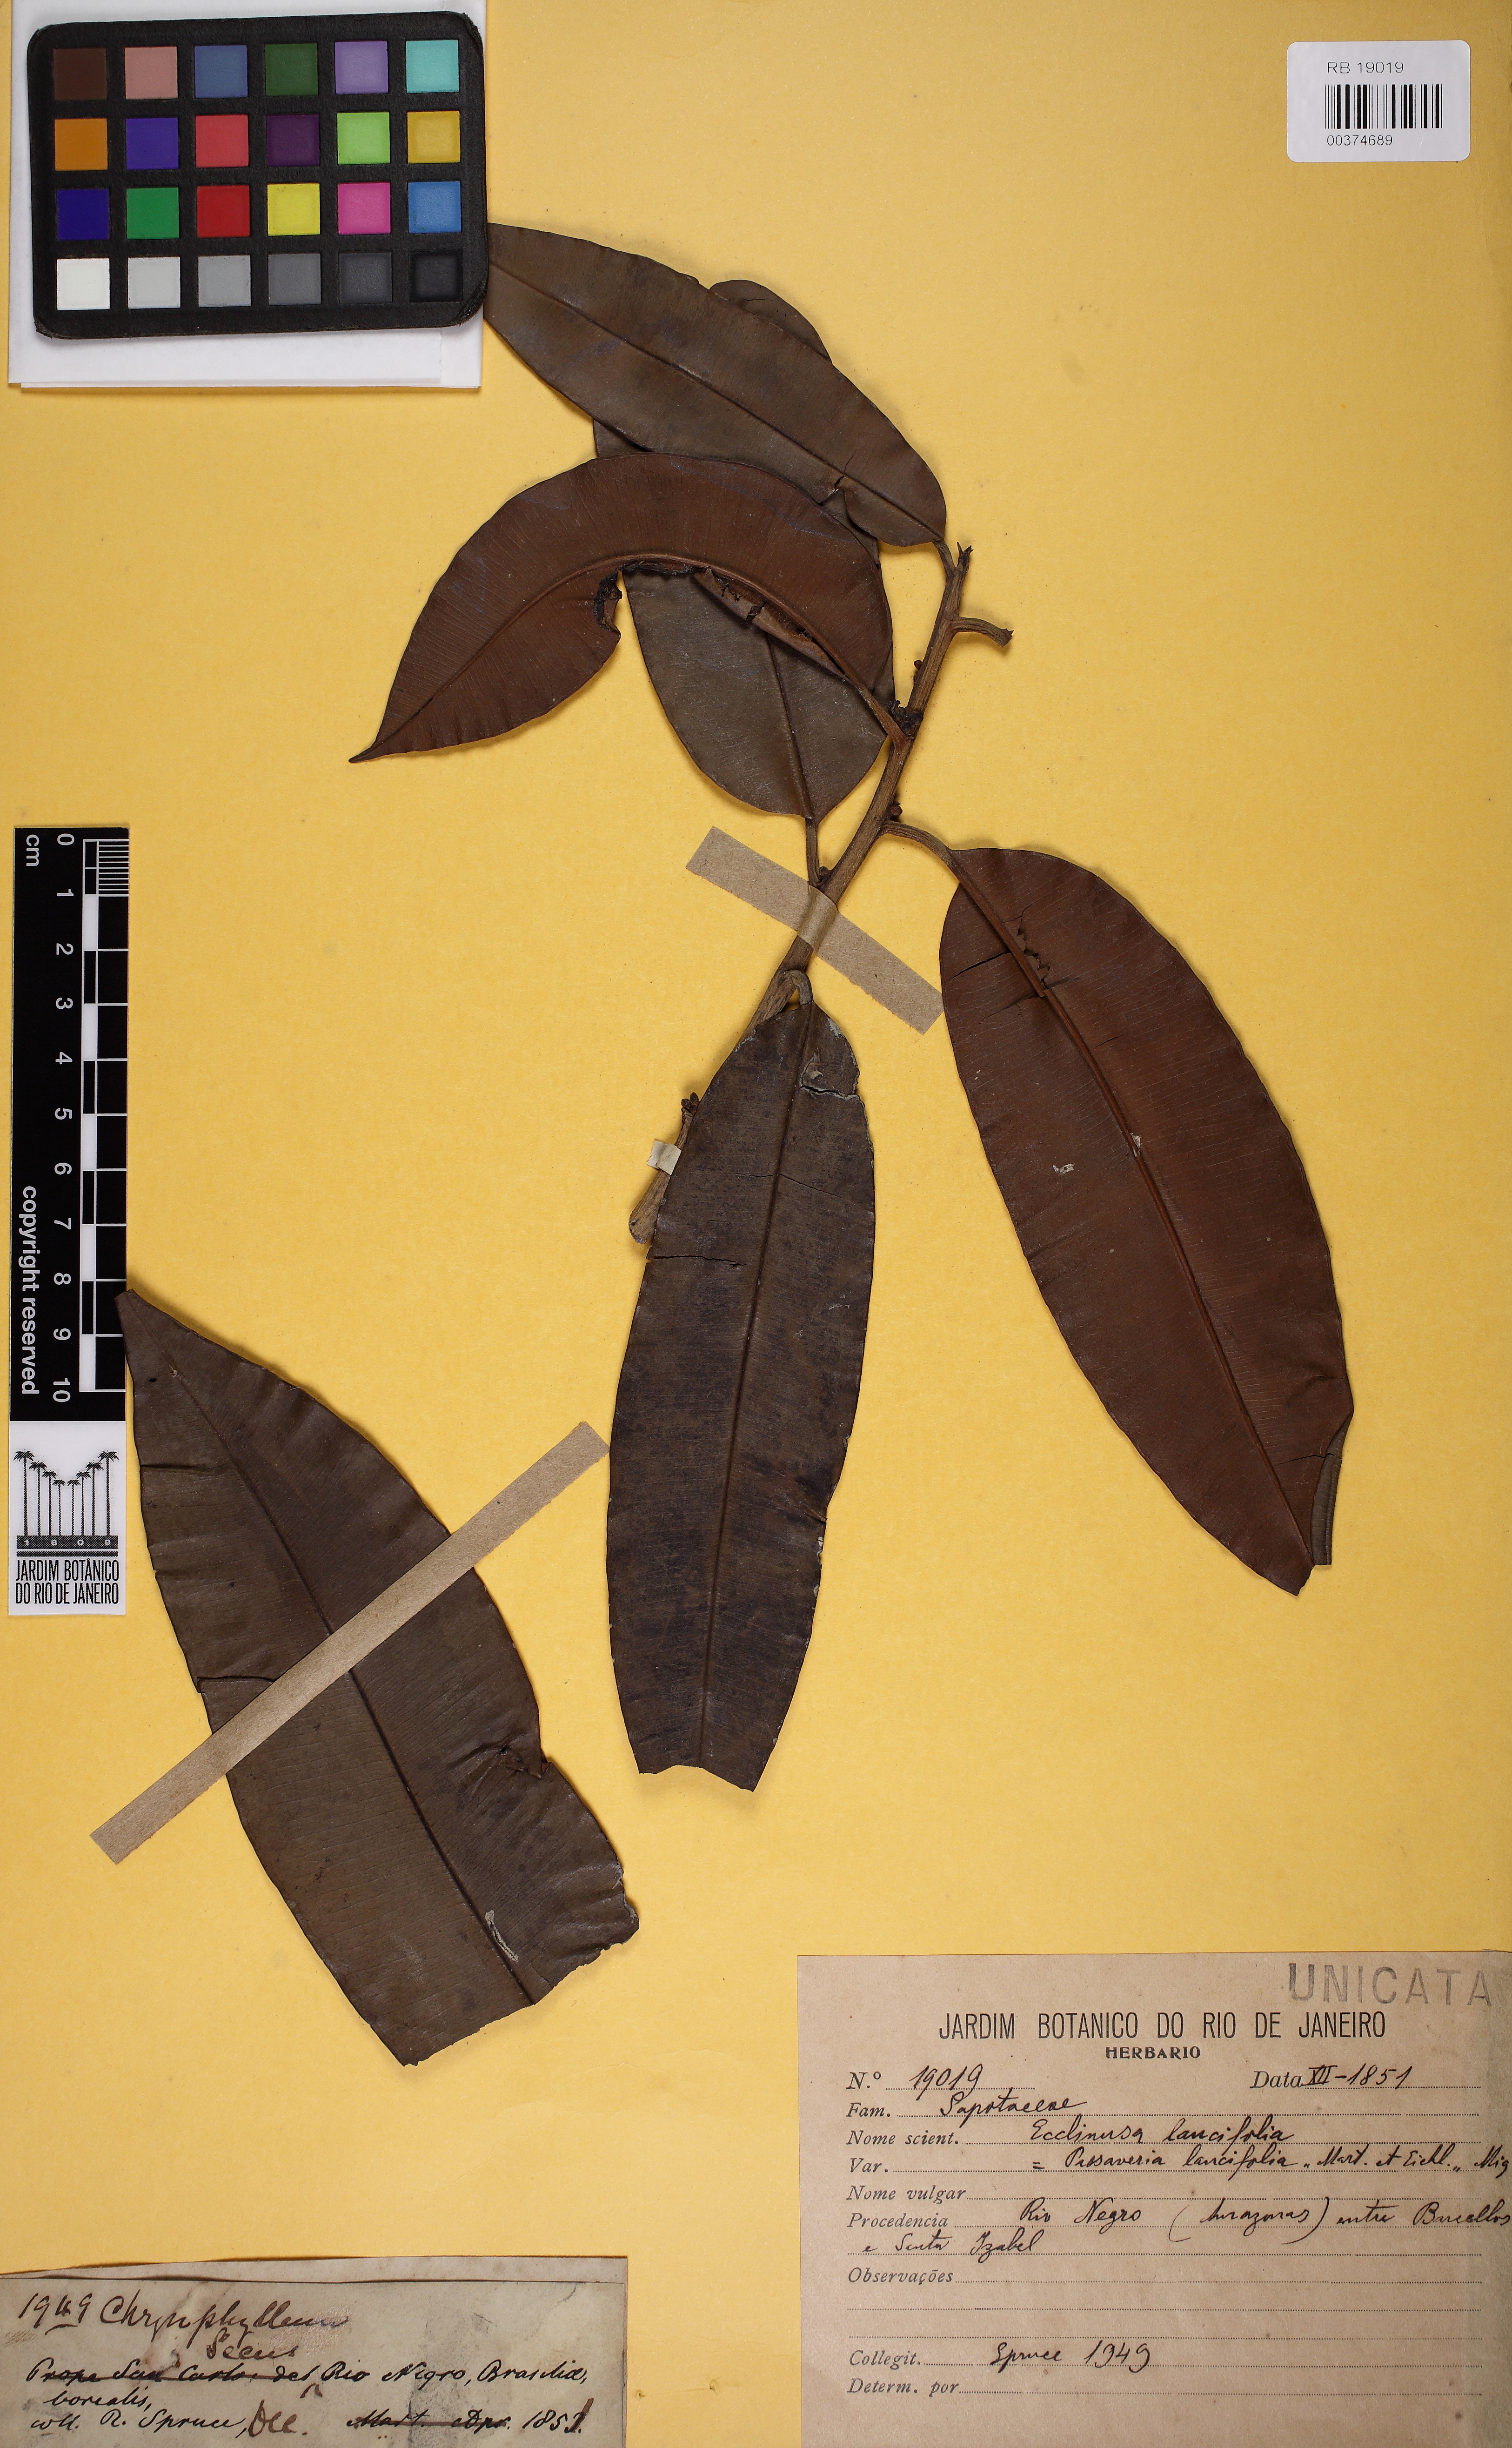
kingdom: Plantae
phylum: Tracheophyta
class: Magnoliopsida
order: Ericales
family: Sapotaceae
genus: Ecclinusa
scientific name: Ecclinusa lancifolia
